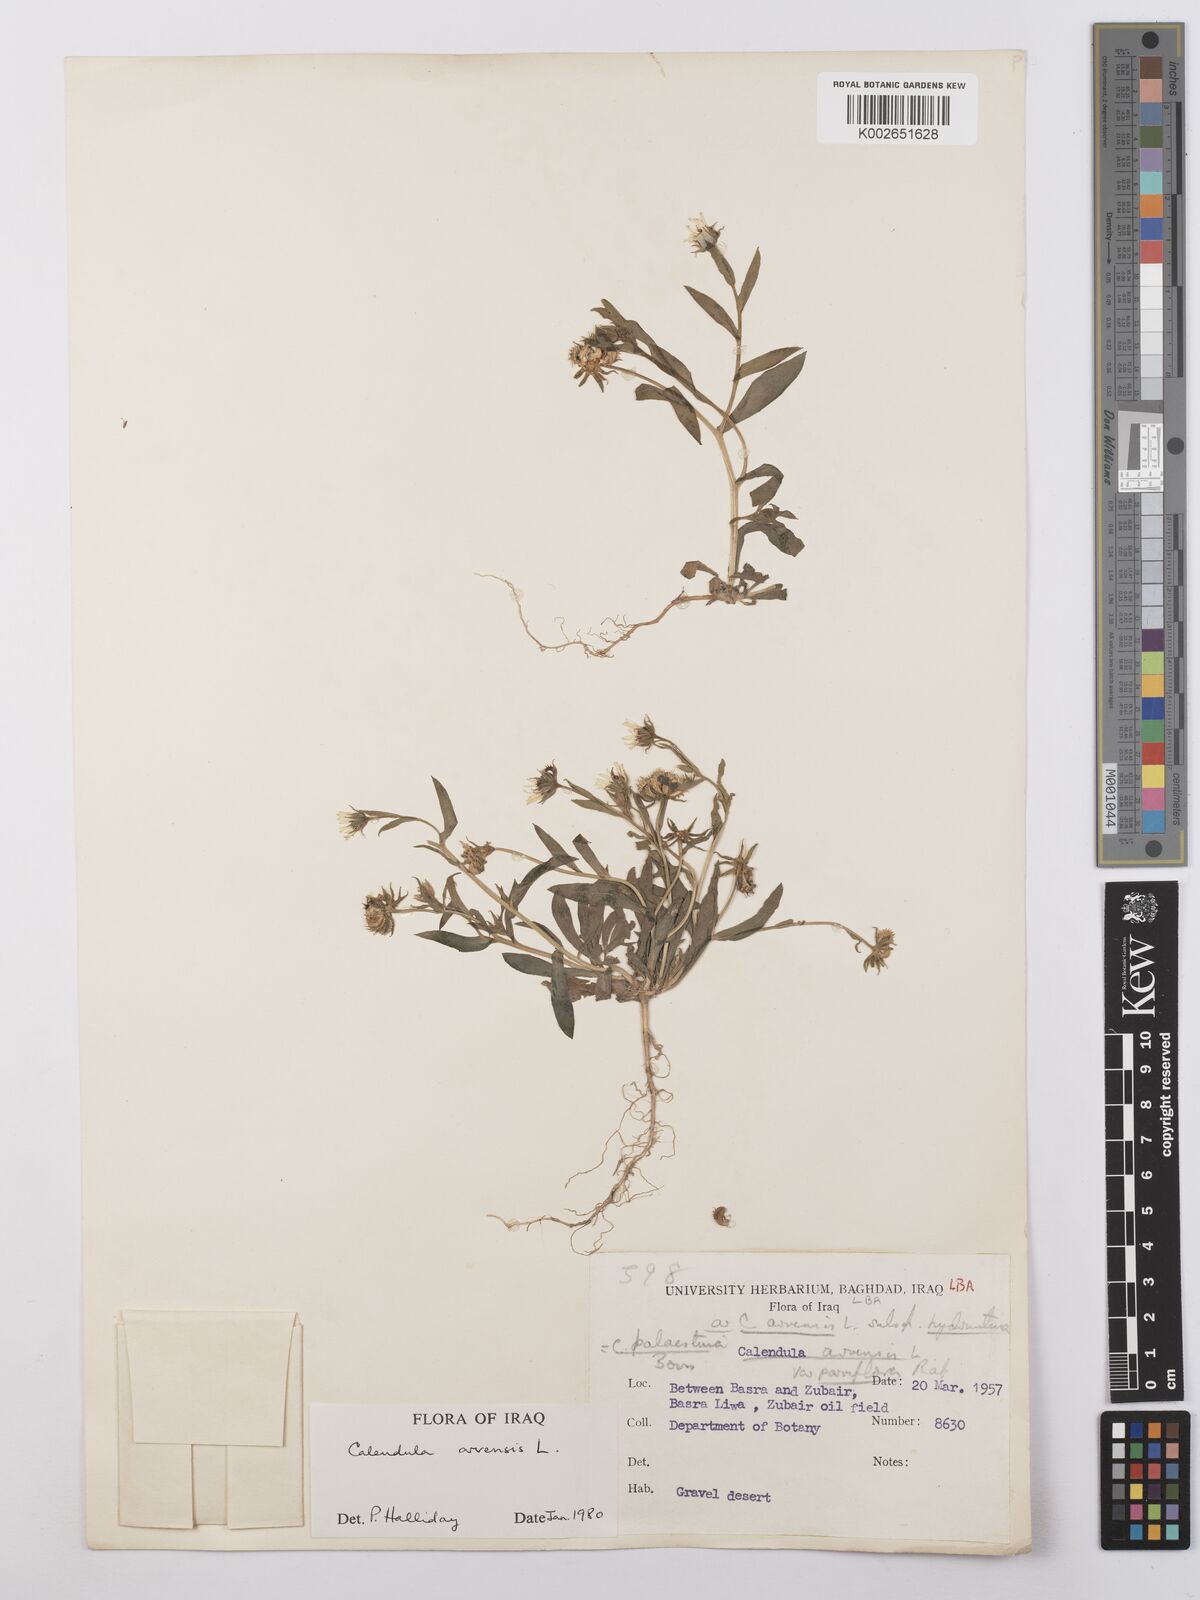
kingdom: Plantae
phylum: Tracheophyta
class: Magnoliopsida
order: Asterales
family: Asteraceae
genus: Calendula
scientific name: Calendula arvensis
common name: Field marigold
